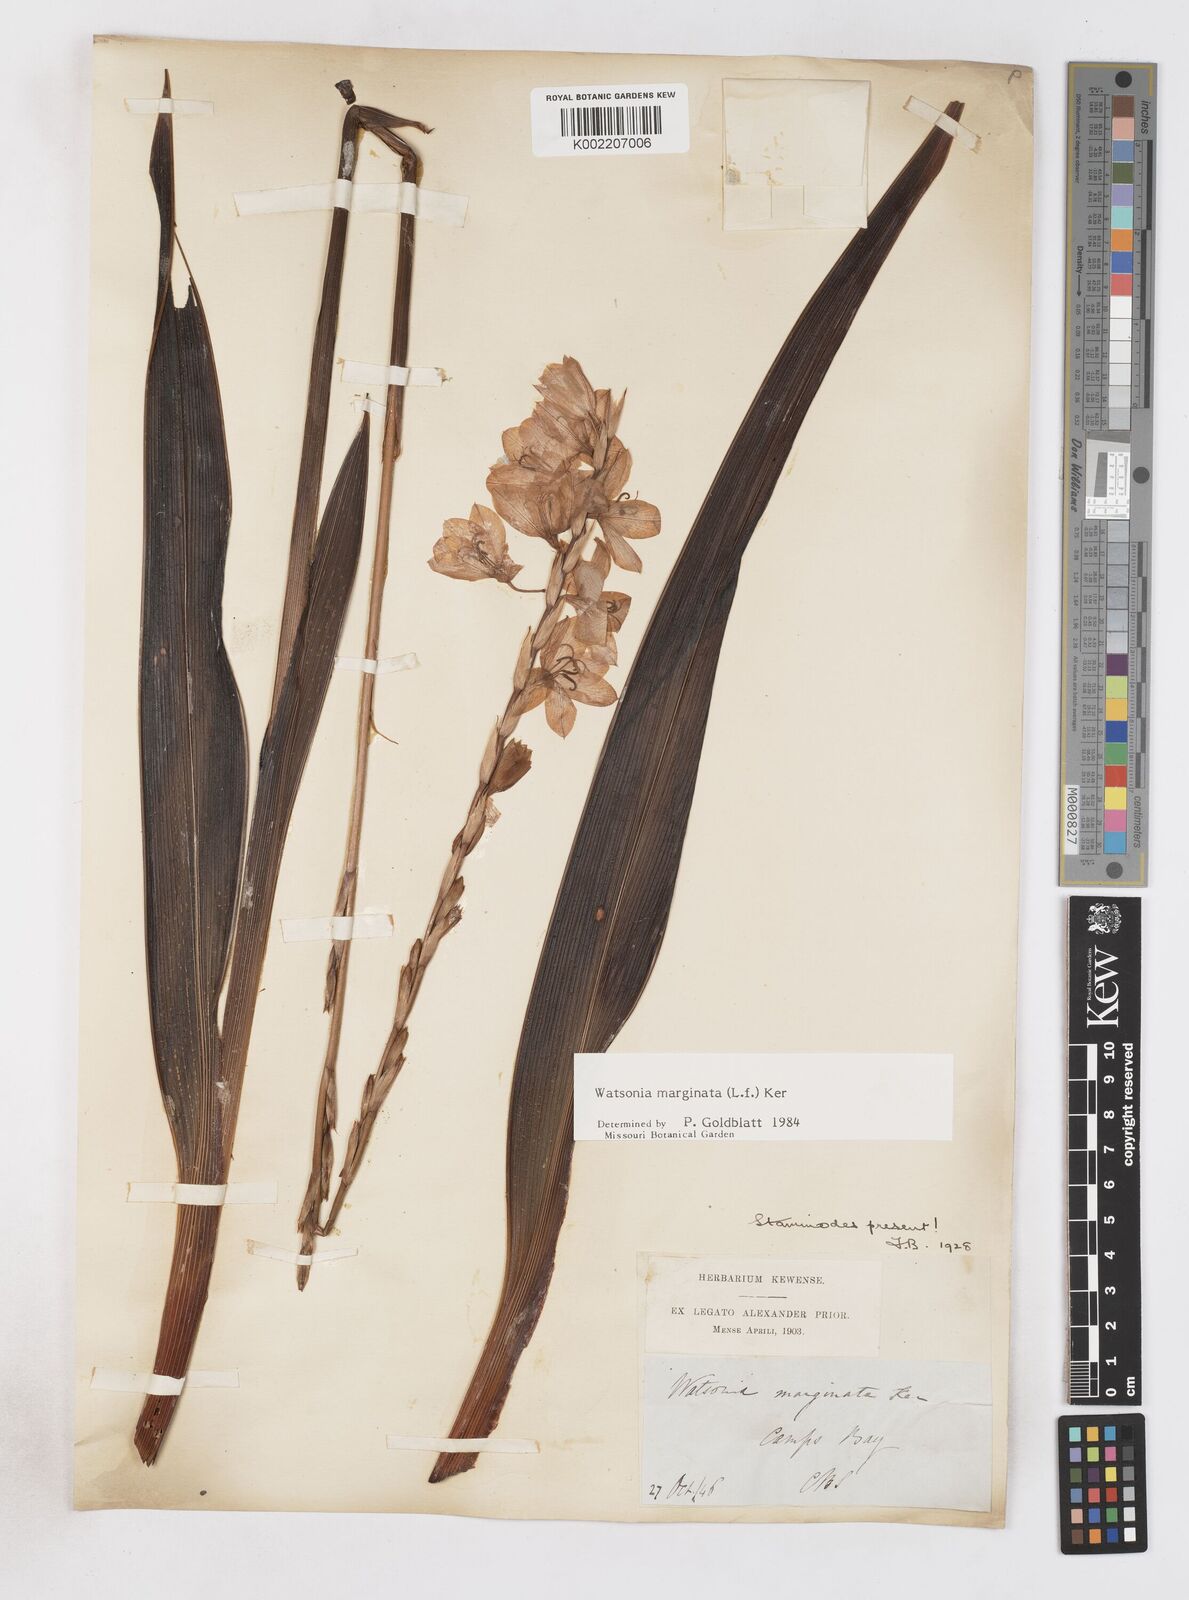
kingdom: Plantae
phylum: Tracheophyta
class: Liliopsida
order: Asparagales
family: Iridaceae
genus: Watsonia
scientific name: Watsonia marginata
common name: Fragrant bugle-lily
